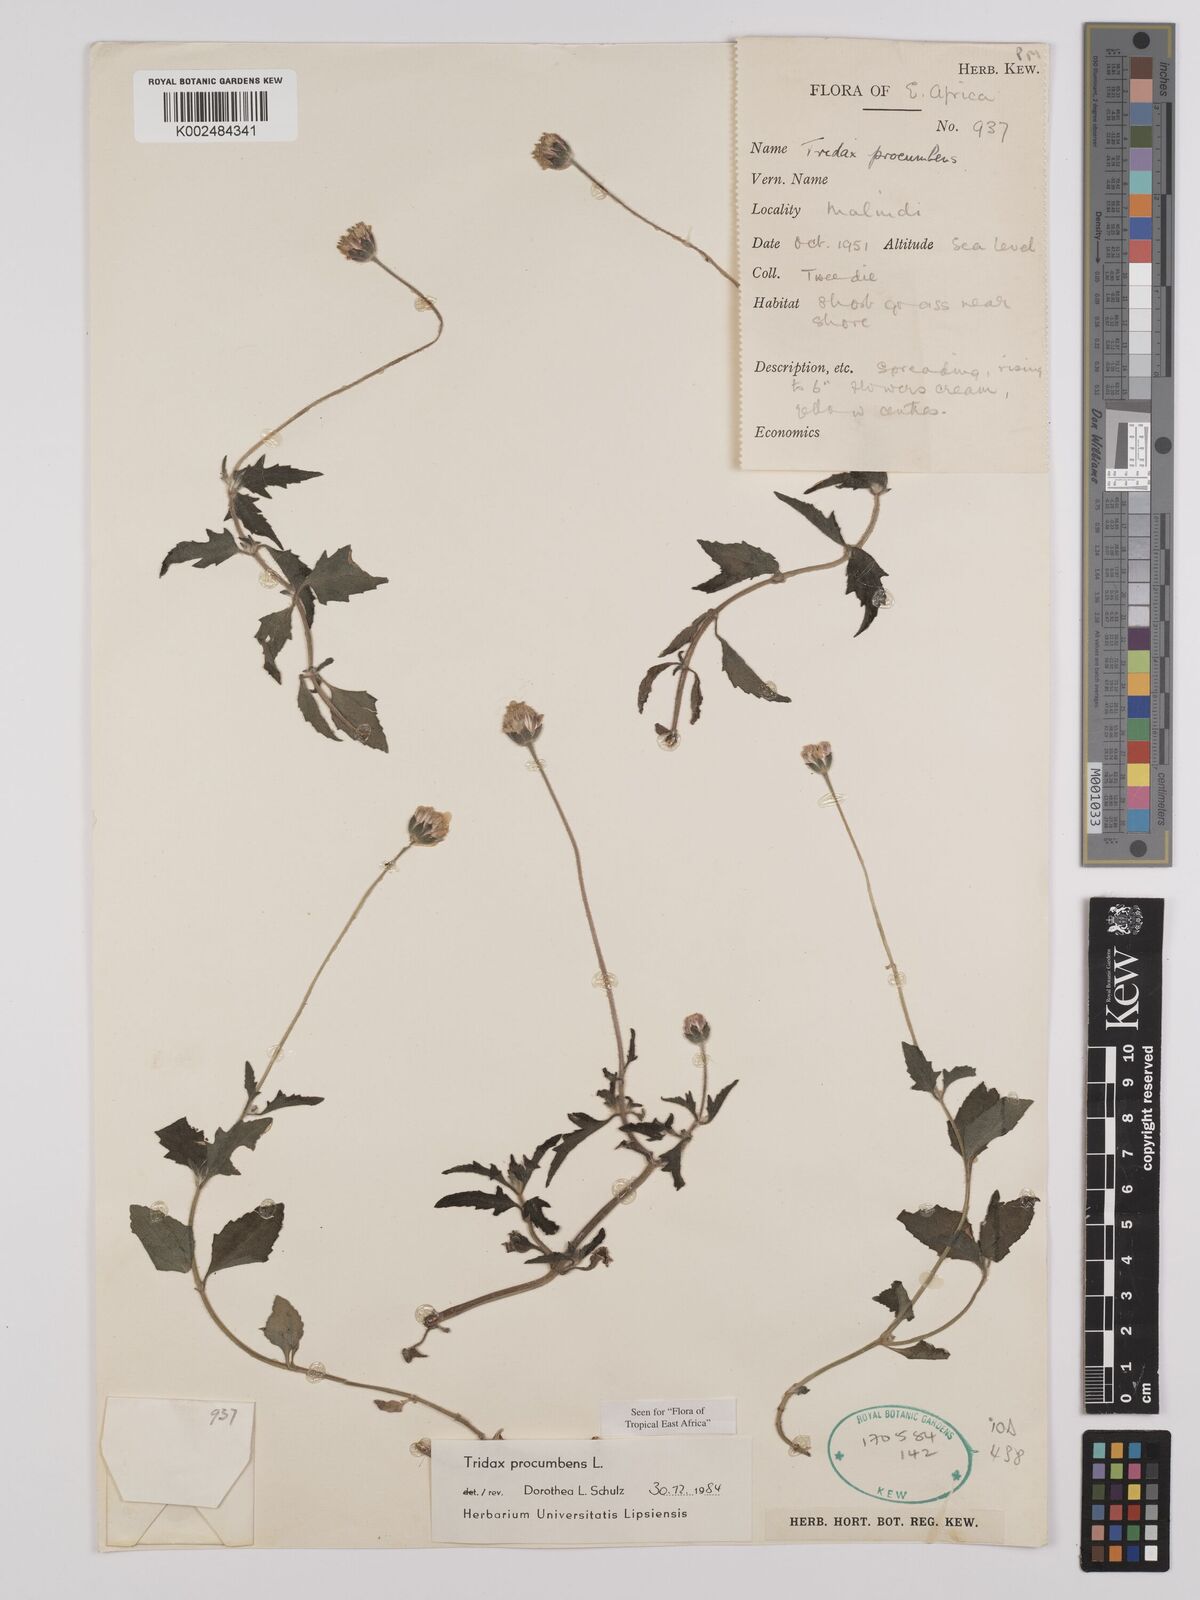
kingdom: Plantae
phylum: Tracheophyta
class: Magnoliopsida
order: Asterales
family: Asteraceae
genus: Tridax
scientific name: Tridax procumbens
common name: Coatbuttons
